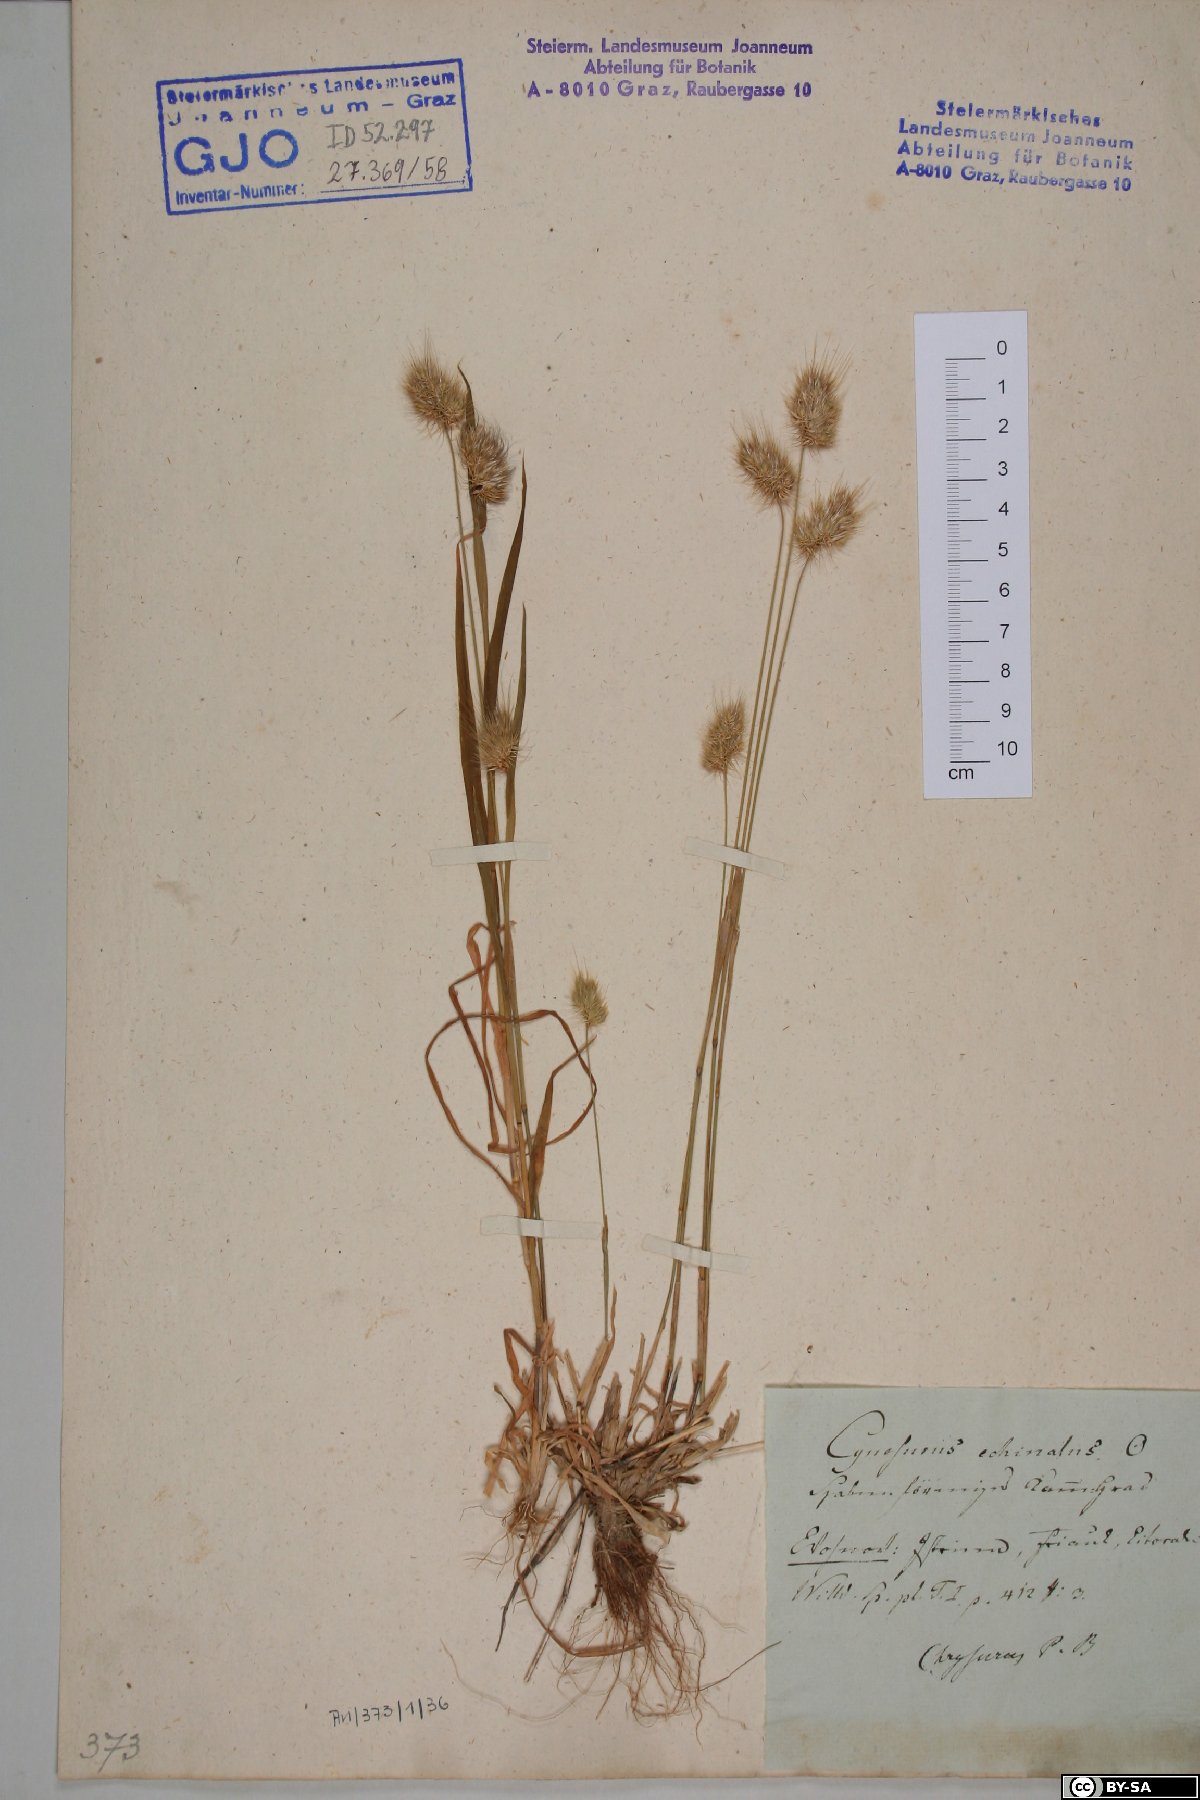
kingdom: Plantae
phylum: Tracheophyta
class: Liliopsida
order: Poales
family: Poaceae
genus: Cynosurus
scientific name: Cynosurus echinatus
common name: Rough dog's-tail
